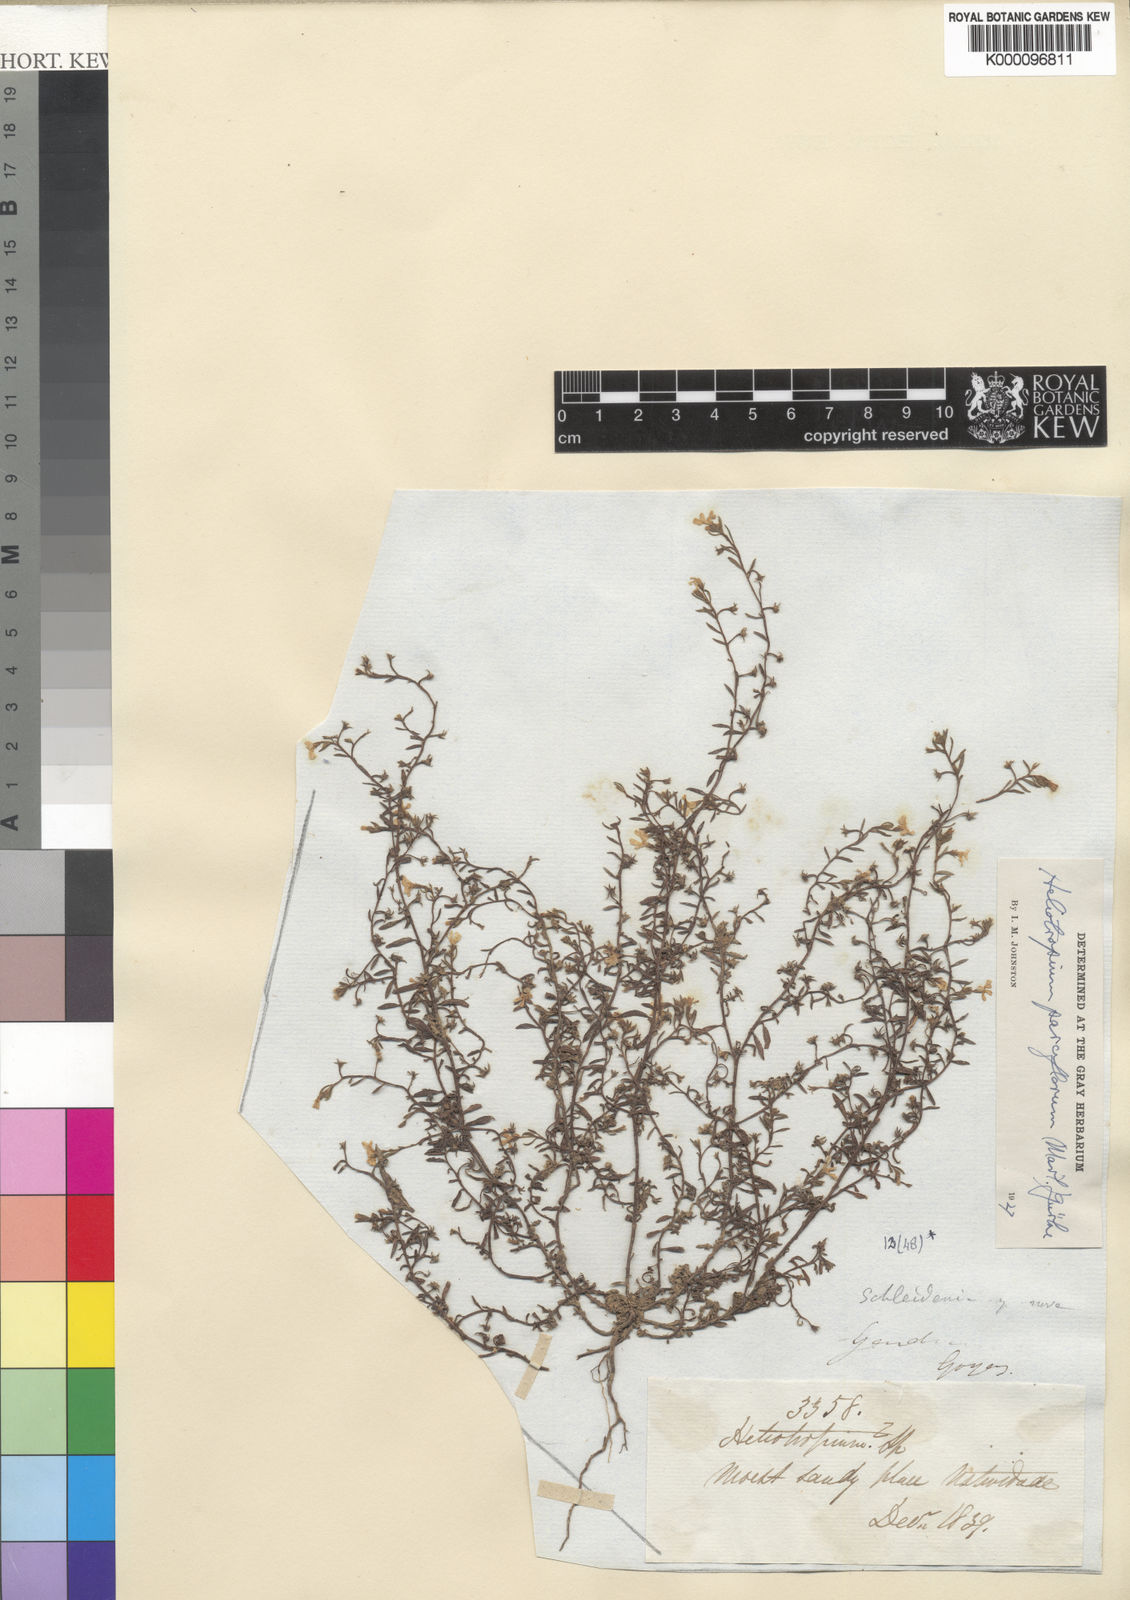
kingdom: Plantae
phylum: Tracheophyta
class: Magnoliopsida
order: Boraginales
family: Heliotropiaceae
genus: Heliotropium
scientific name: Heliotropium
